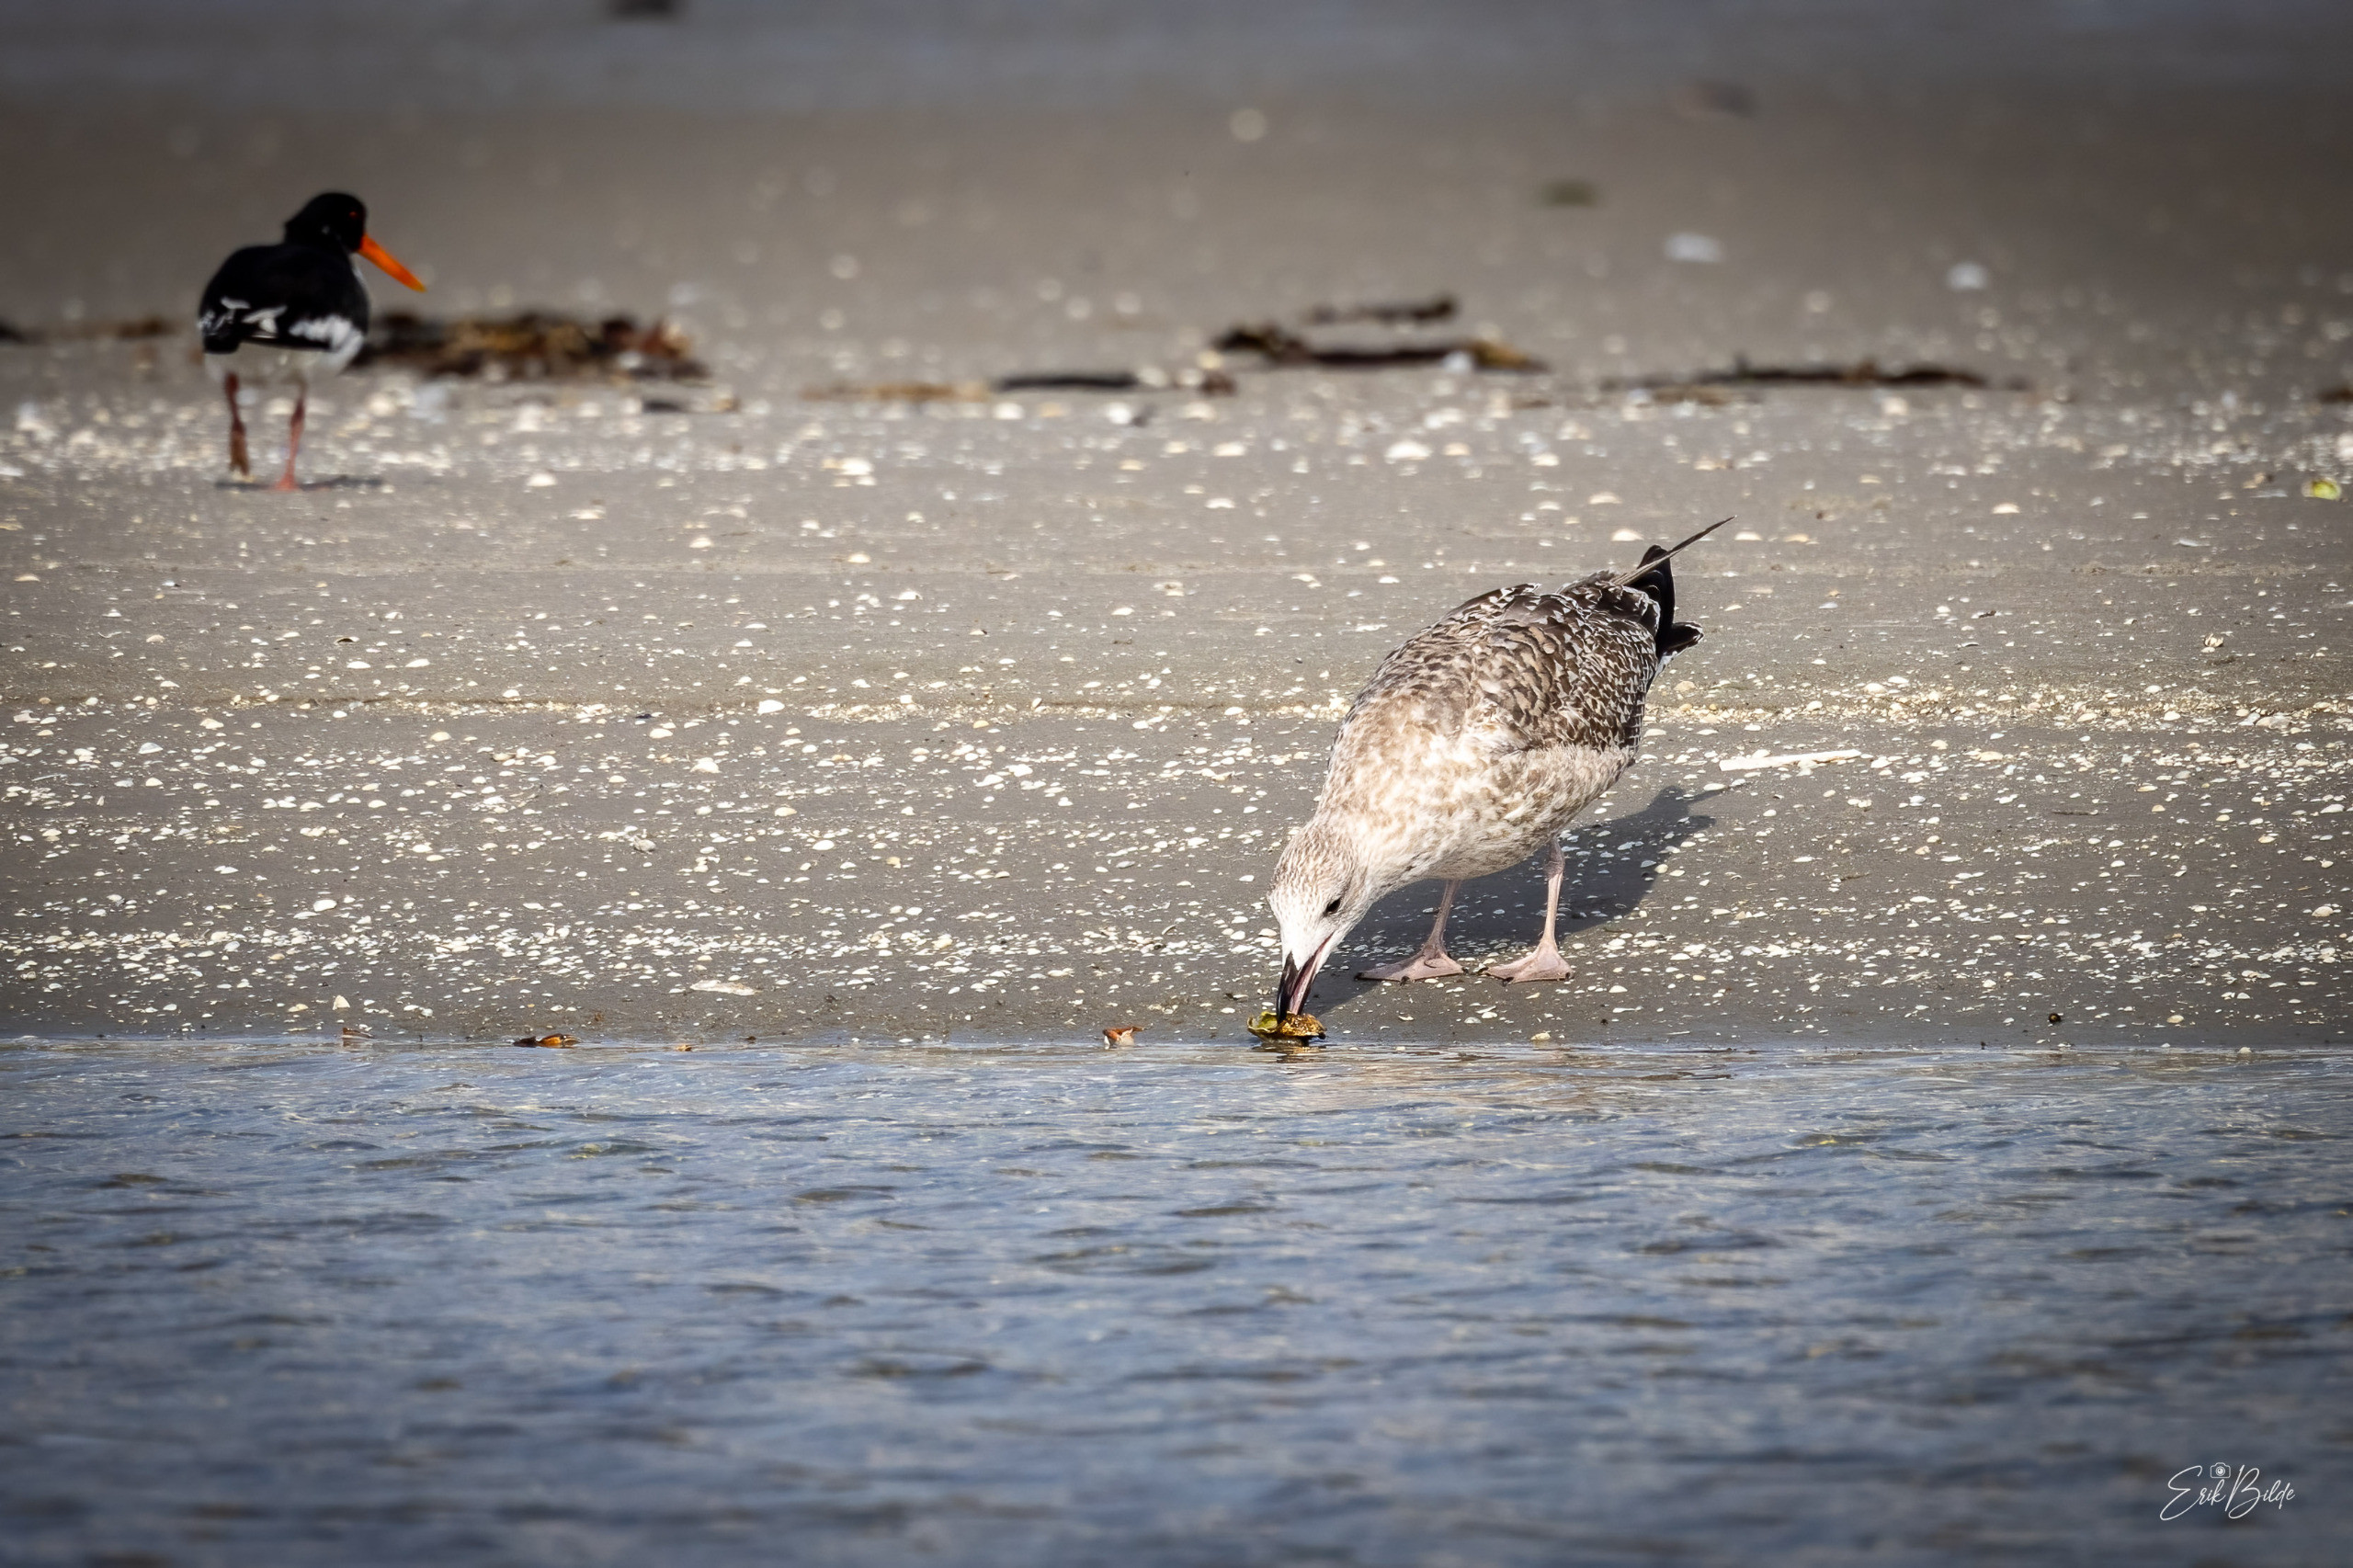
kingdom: Animalia
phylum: Chordata
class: Aves
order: Charadriiformes
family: Laridae
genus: Larus
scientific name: Larus argentatus
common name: Sølvmåge
